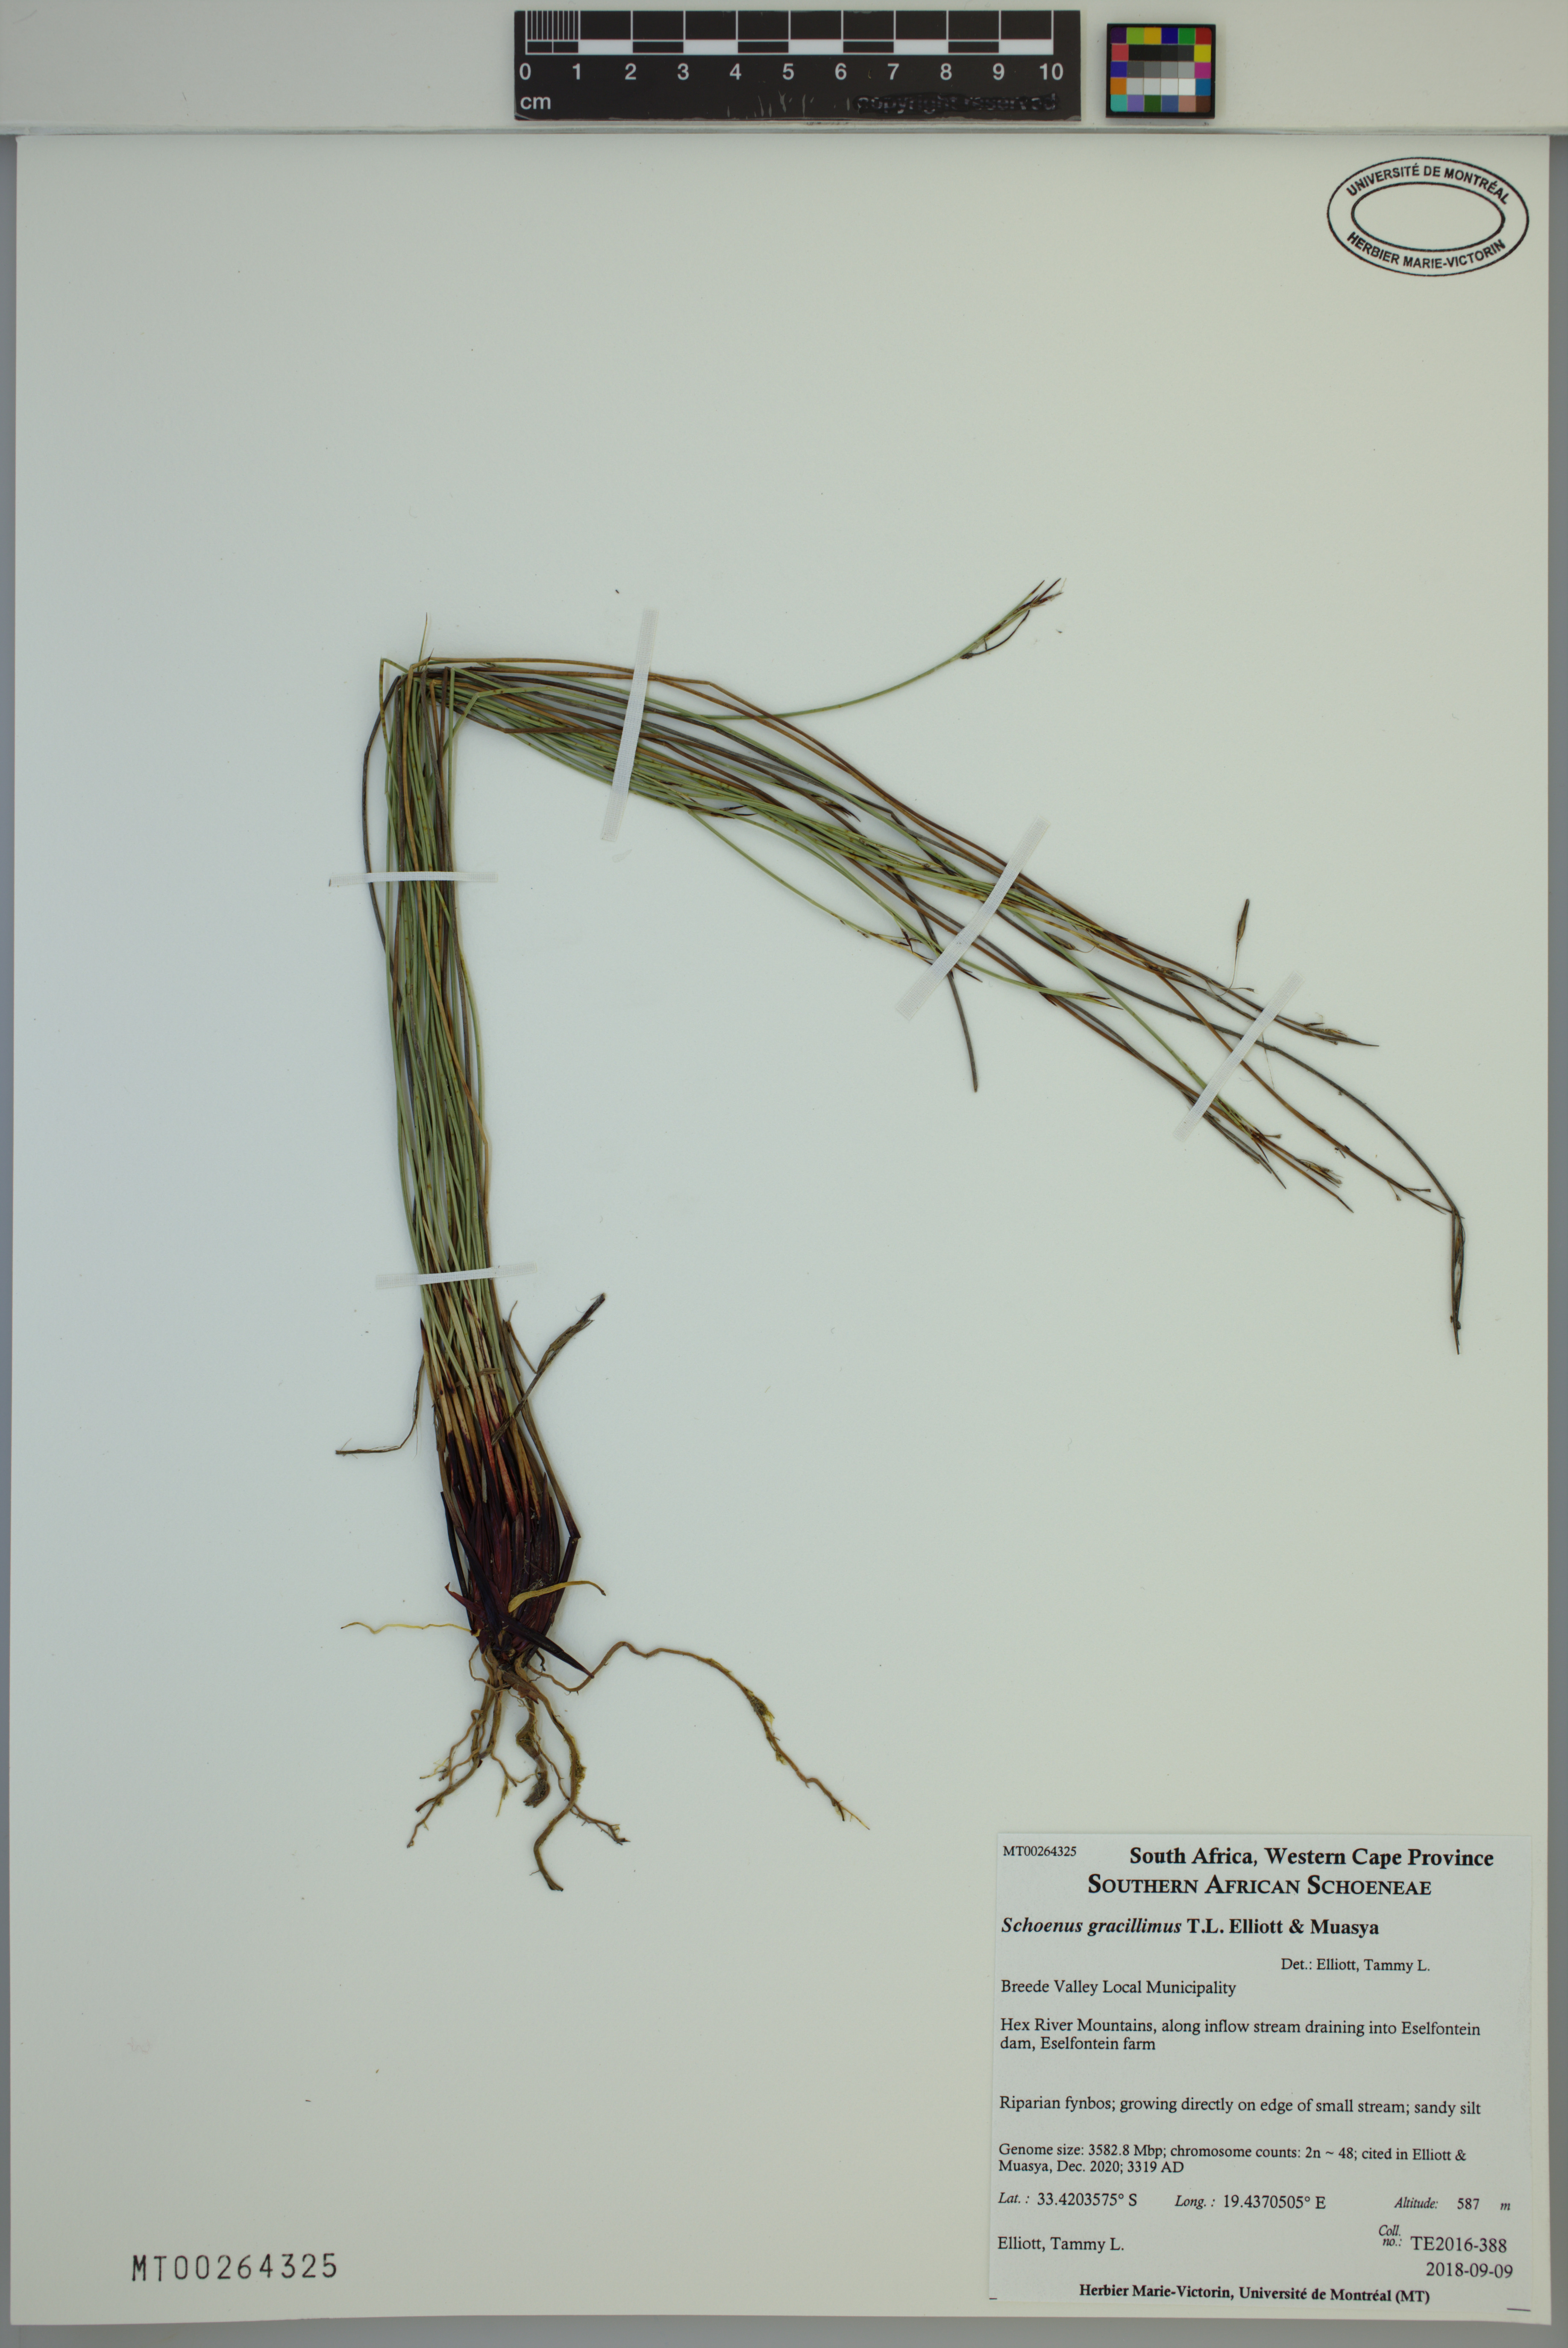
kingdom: Plantae
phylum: Tracheophyta
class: Liliopsida
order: Poales
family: Cyperaceae
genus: Schoenus
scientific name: Schoenus gracillimus
